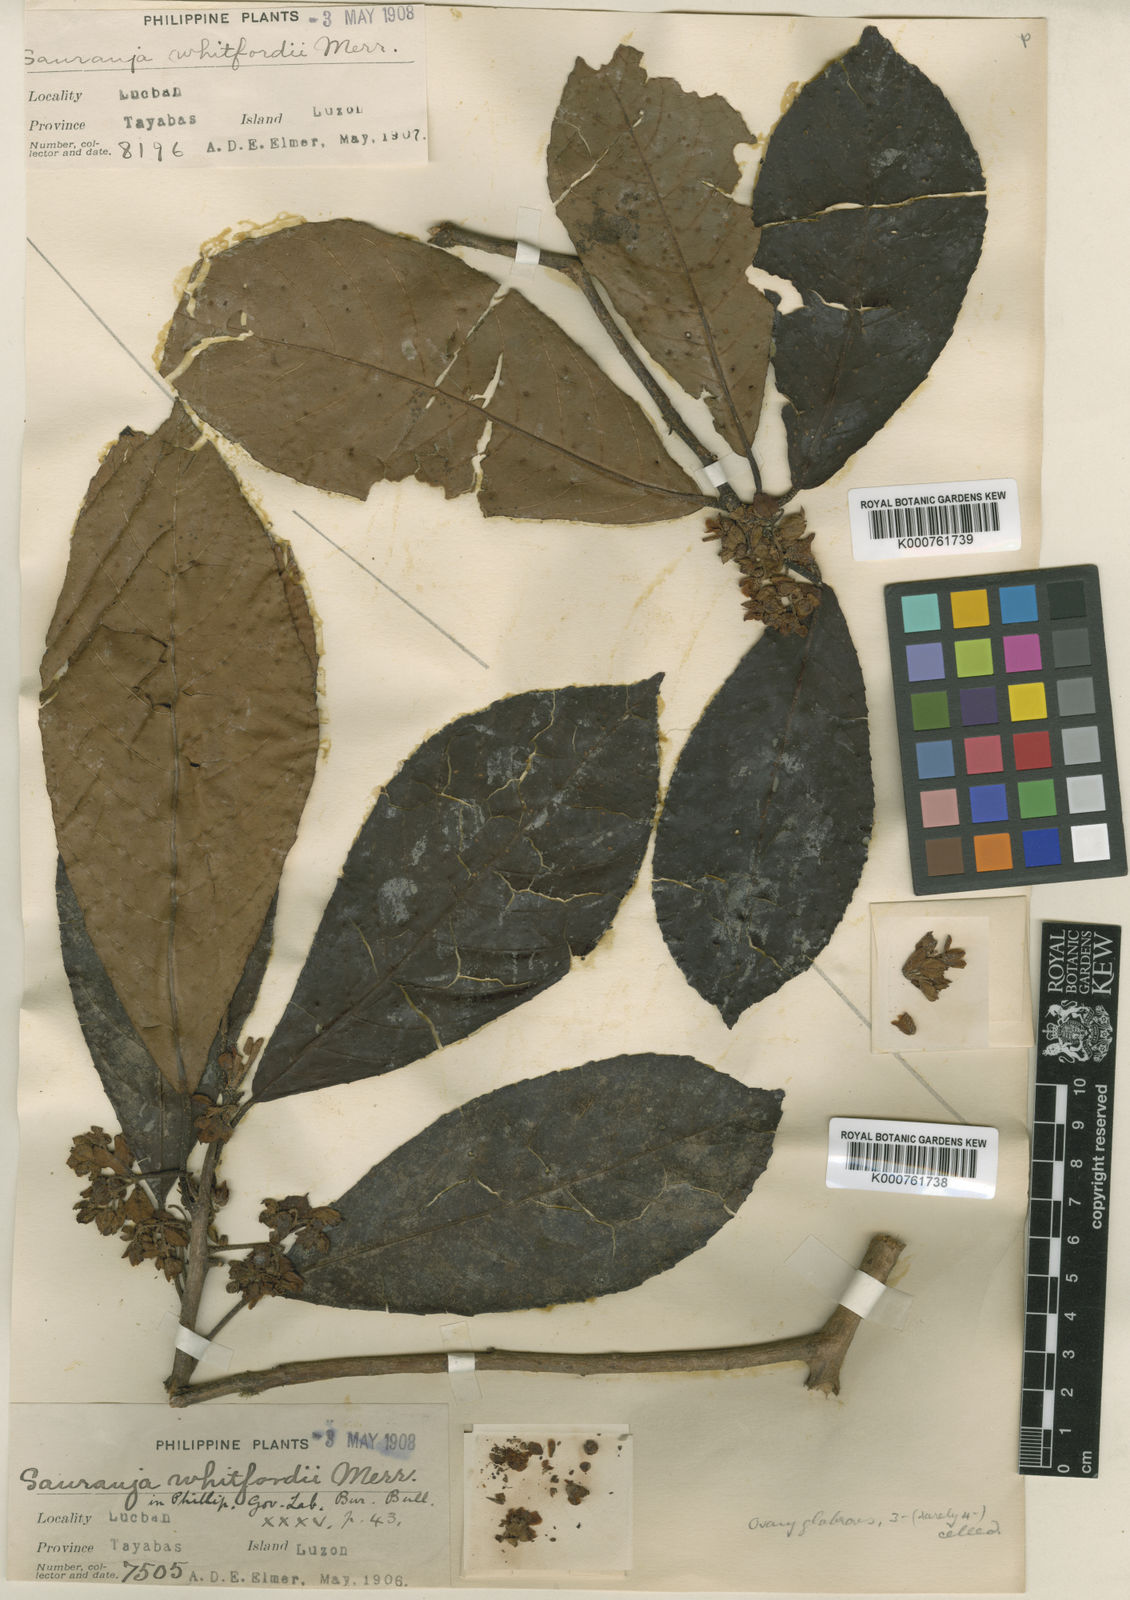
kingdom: Plantae
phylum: Tracheophyta
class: Magnoliopsida
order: Ericales
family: Actinidiaceae
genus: Saurauia
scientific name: Saurauia whitfordii
